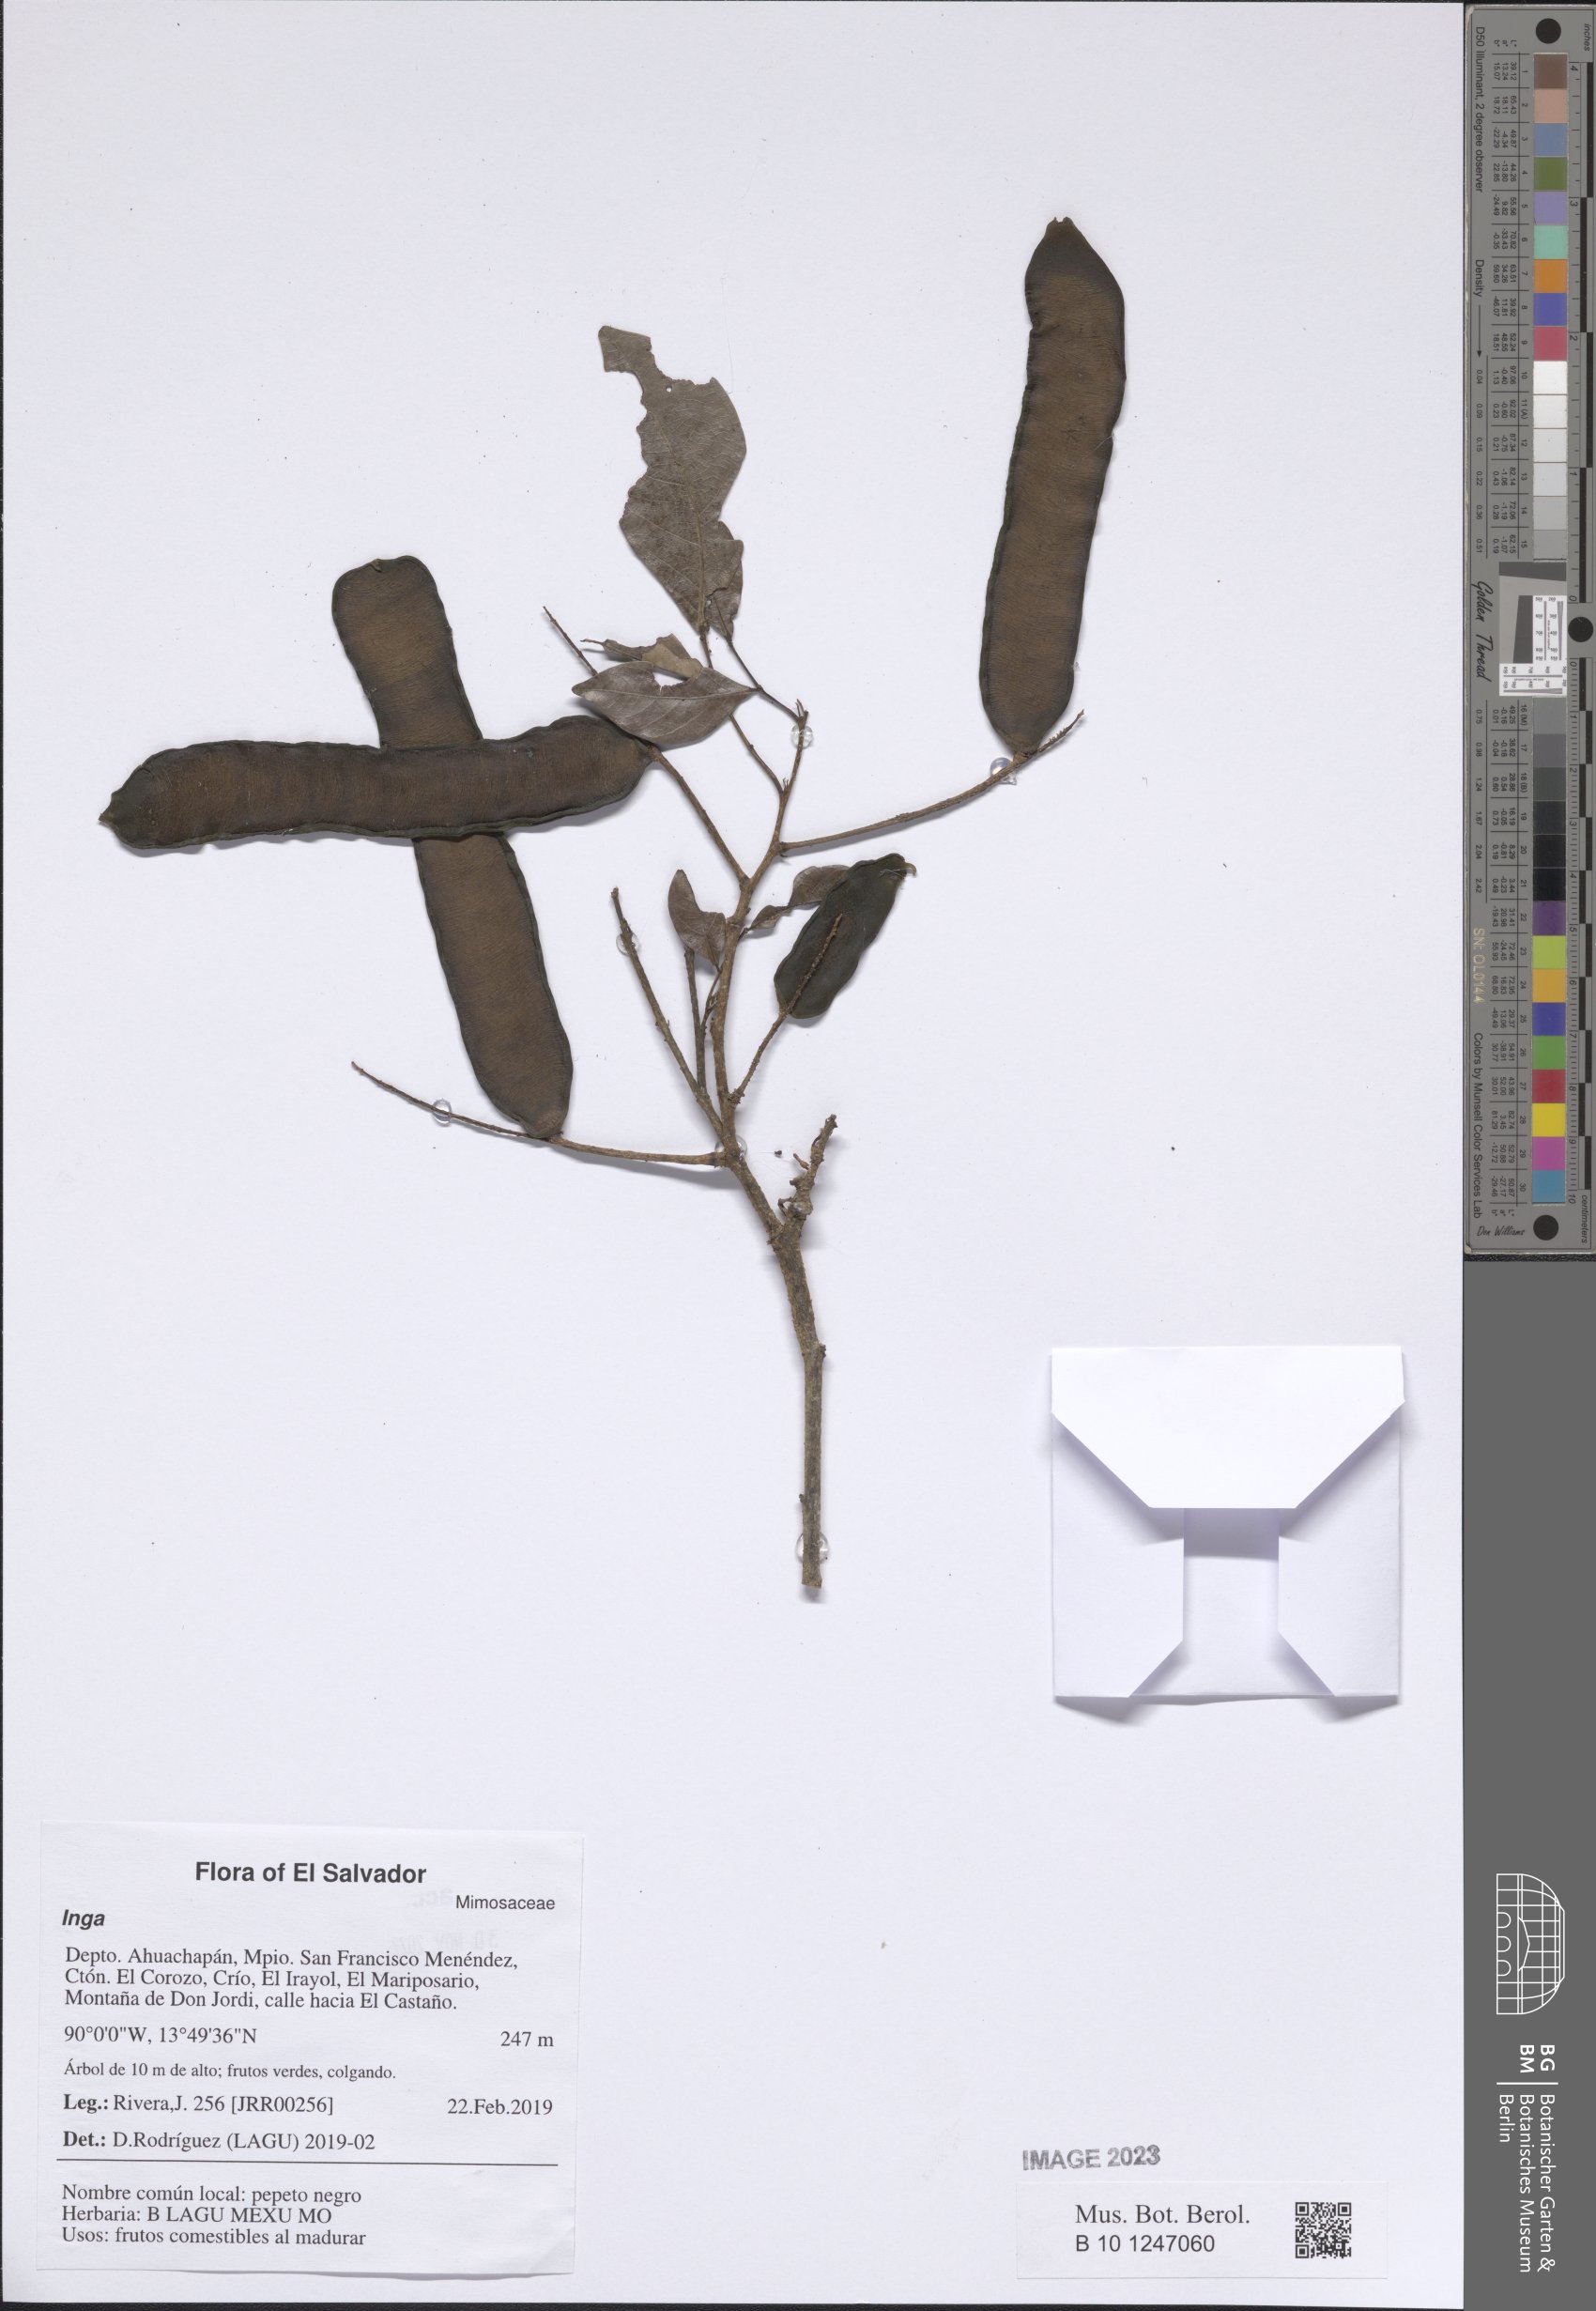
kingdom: Plantae
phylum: Tracheophyta
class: Magnoliopsida
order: Fabales
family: Fabaceae
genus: Inga
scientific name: Inga
